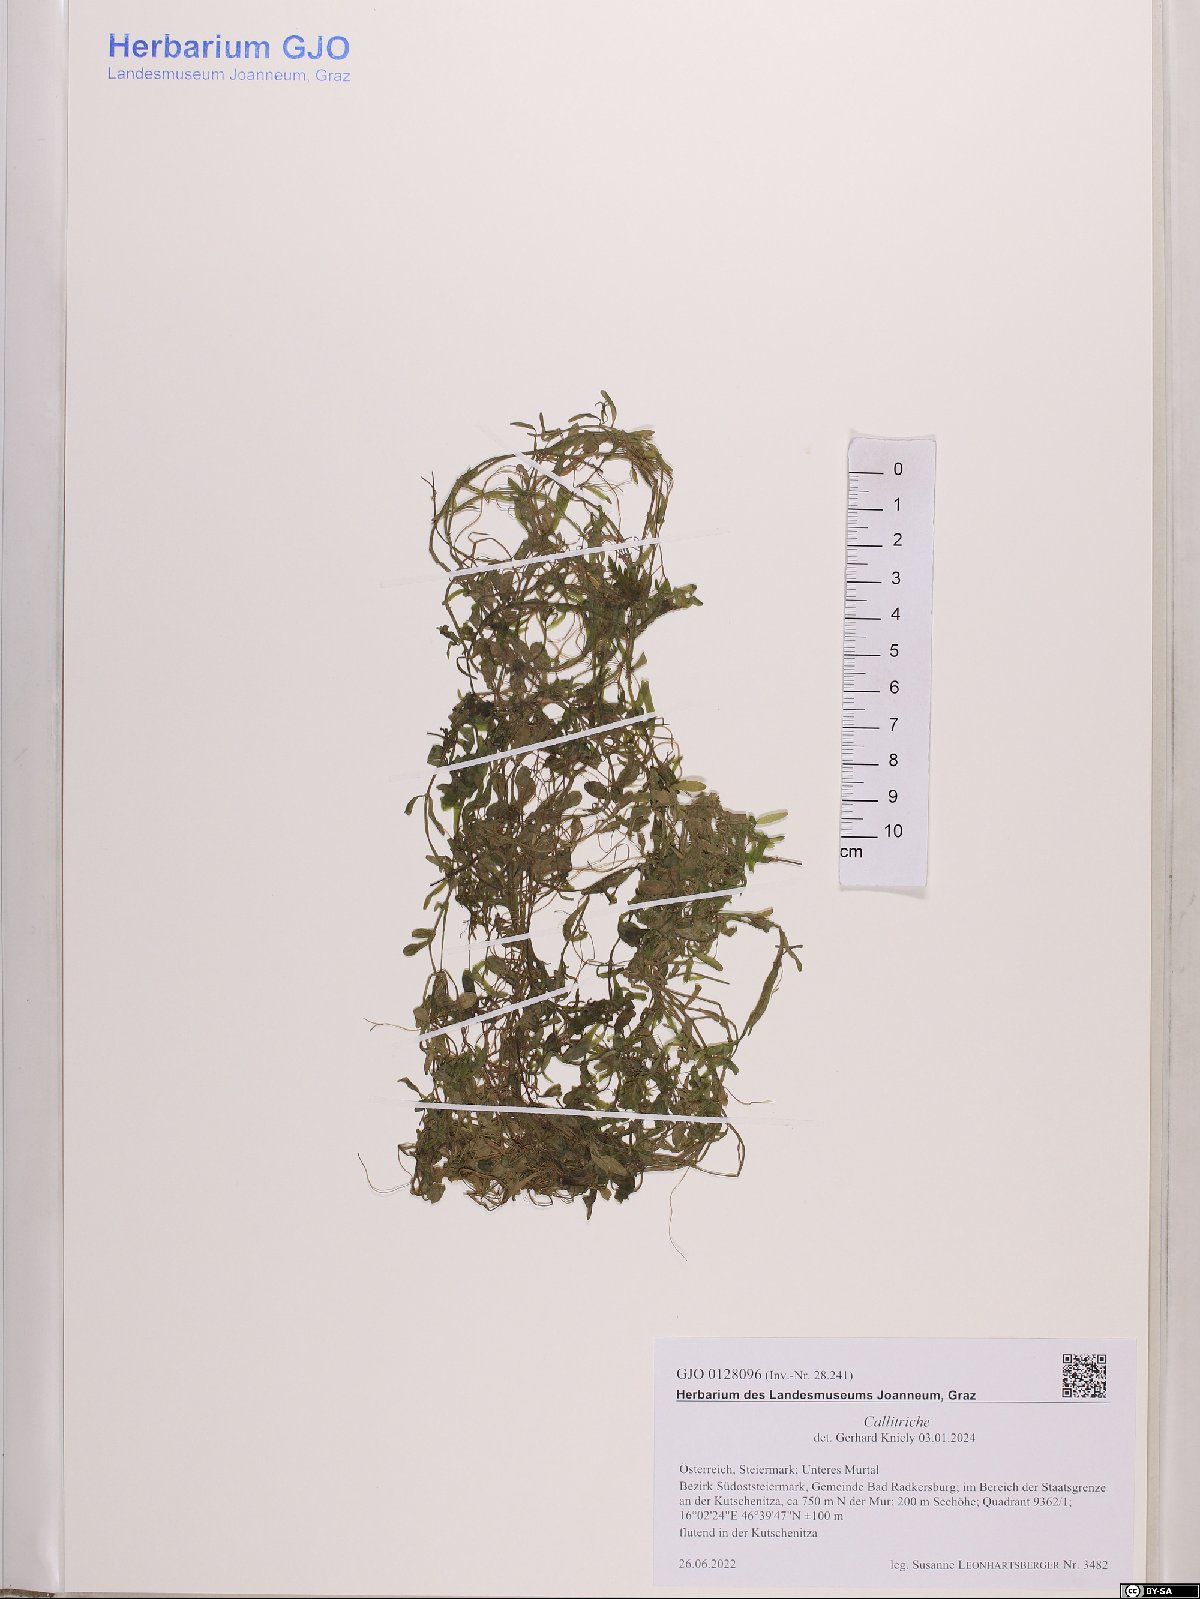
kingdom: Plantae
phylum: Tracheophyta
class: Magnoliopsida
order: Lamiales
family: Plantaginaceae
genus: Callitriche
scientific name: Callitriche
